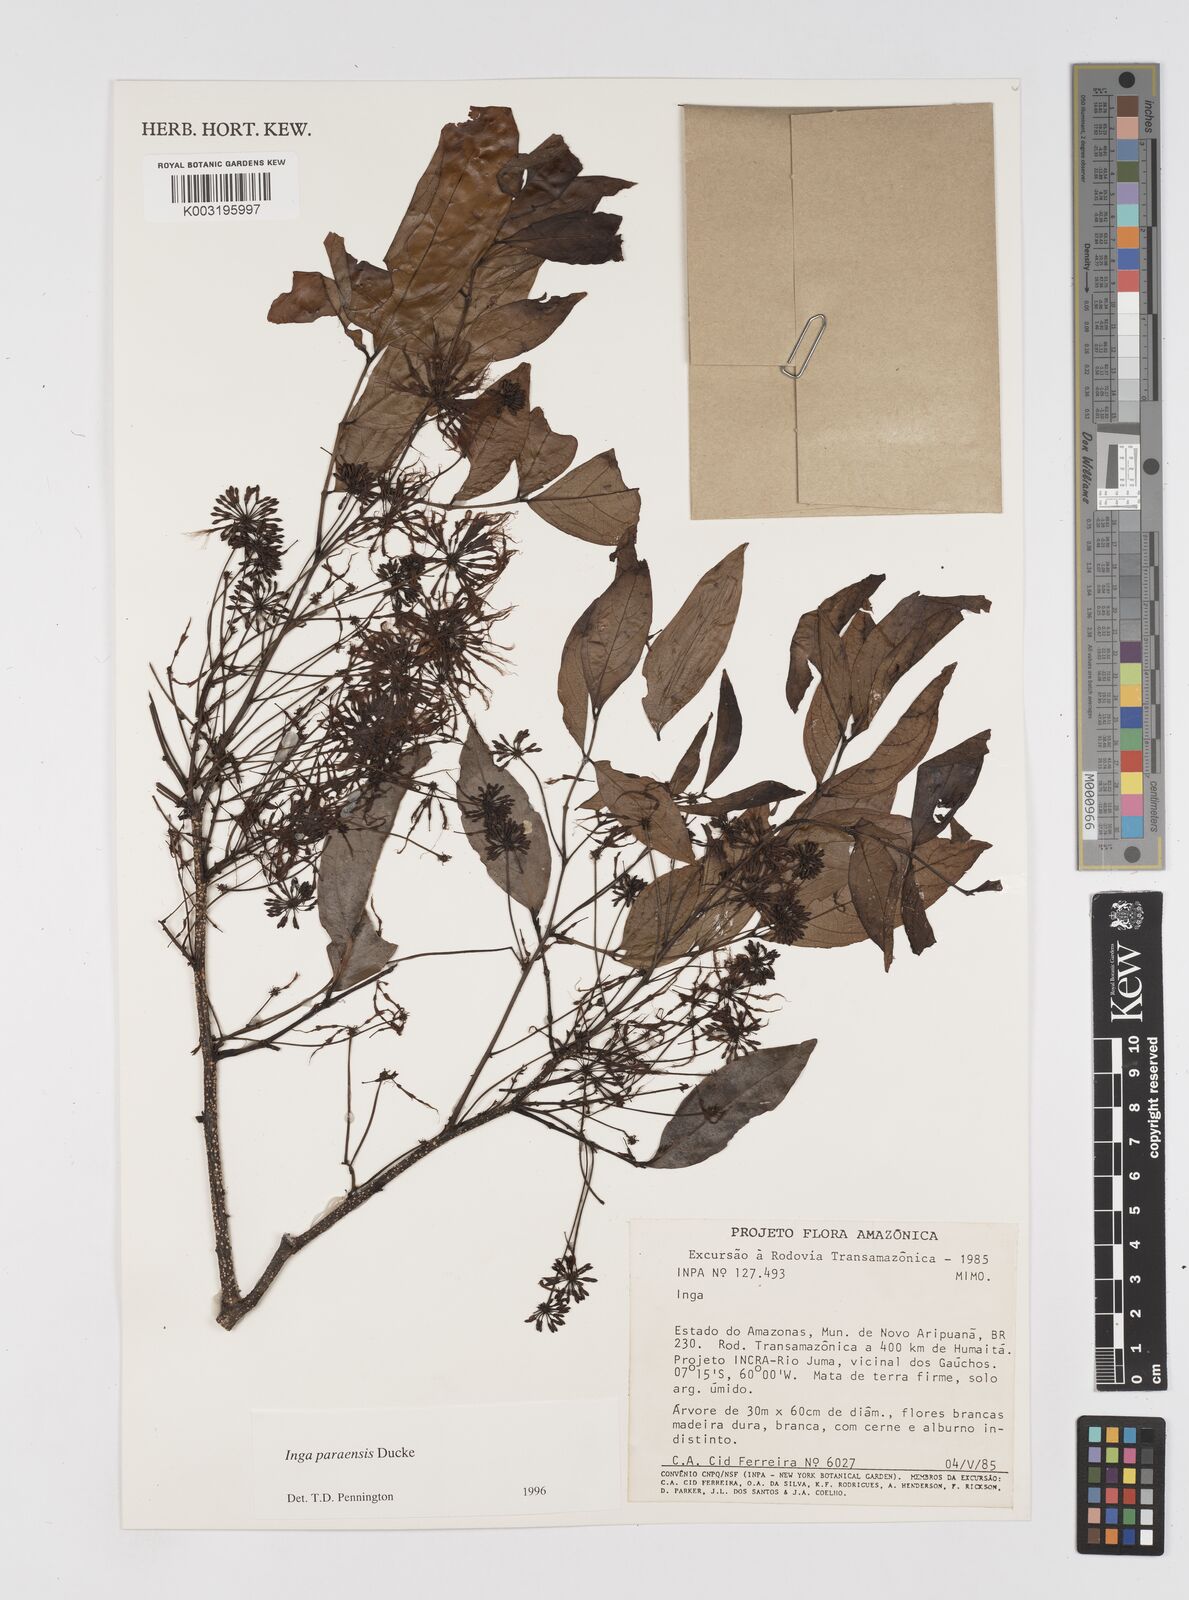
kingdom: Plantae
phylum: Tracheophyta
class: Magnoliopsida
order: Fabales
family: Fabaceae
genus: Inga
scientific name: Inga paraensis
